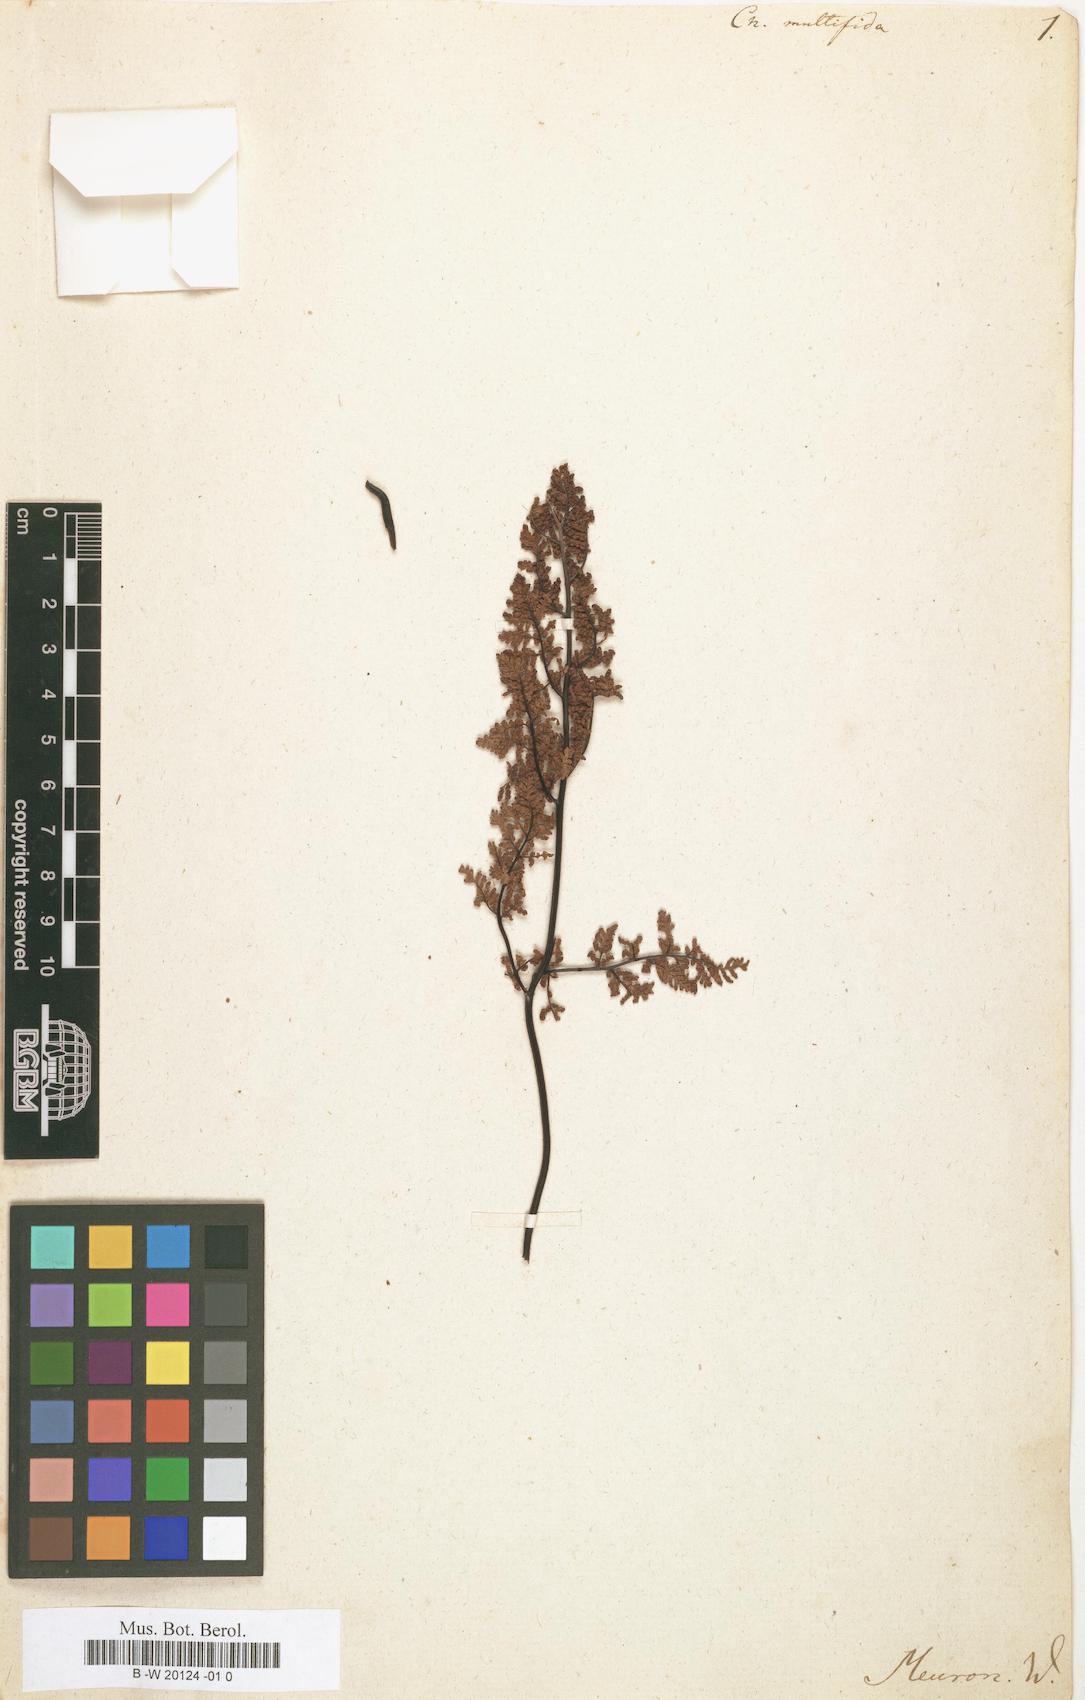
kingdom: Plantae
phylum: Tracheophyta
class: Polypodiopsida
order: Polypodiales
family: Pteridaceae
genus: Cheilanthes
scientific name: Cheilanthes multifida
